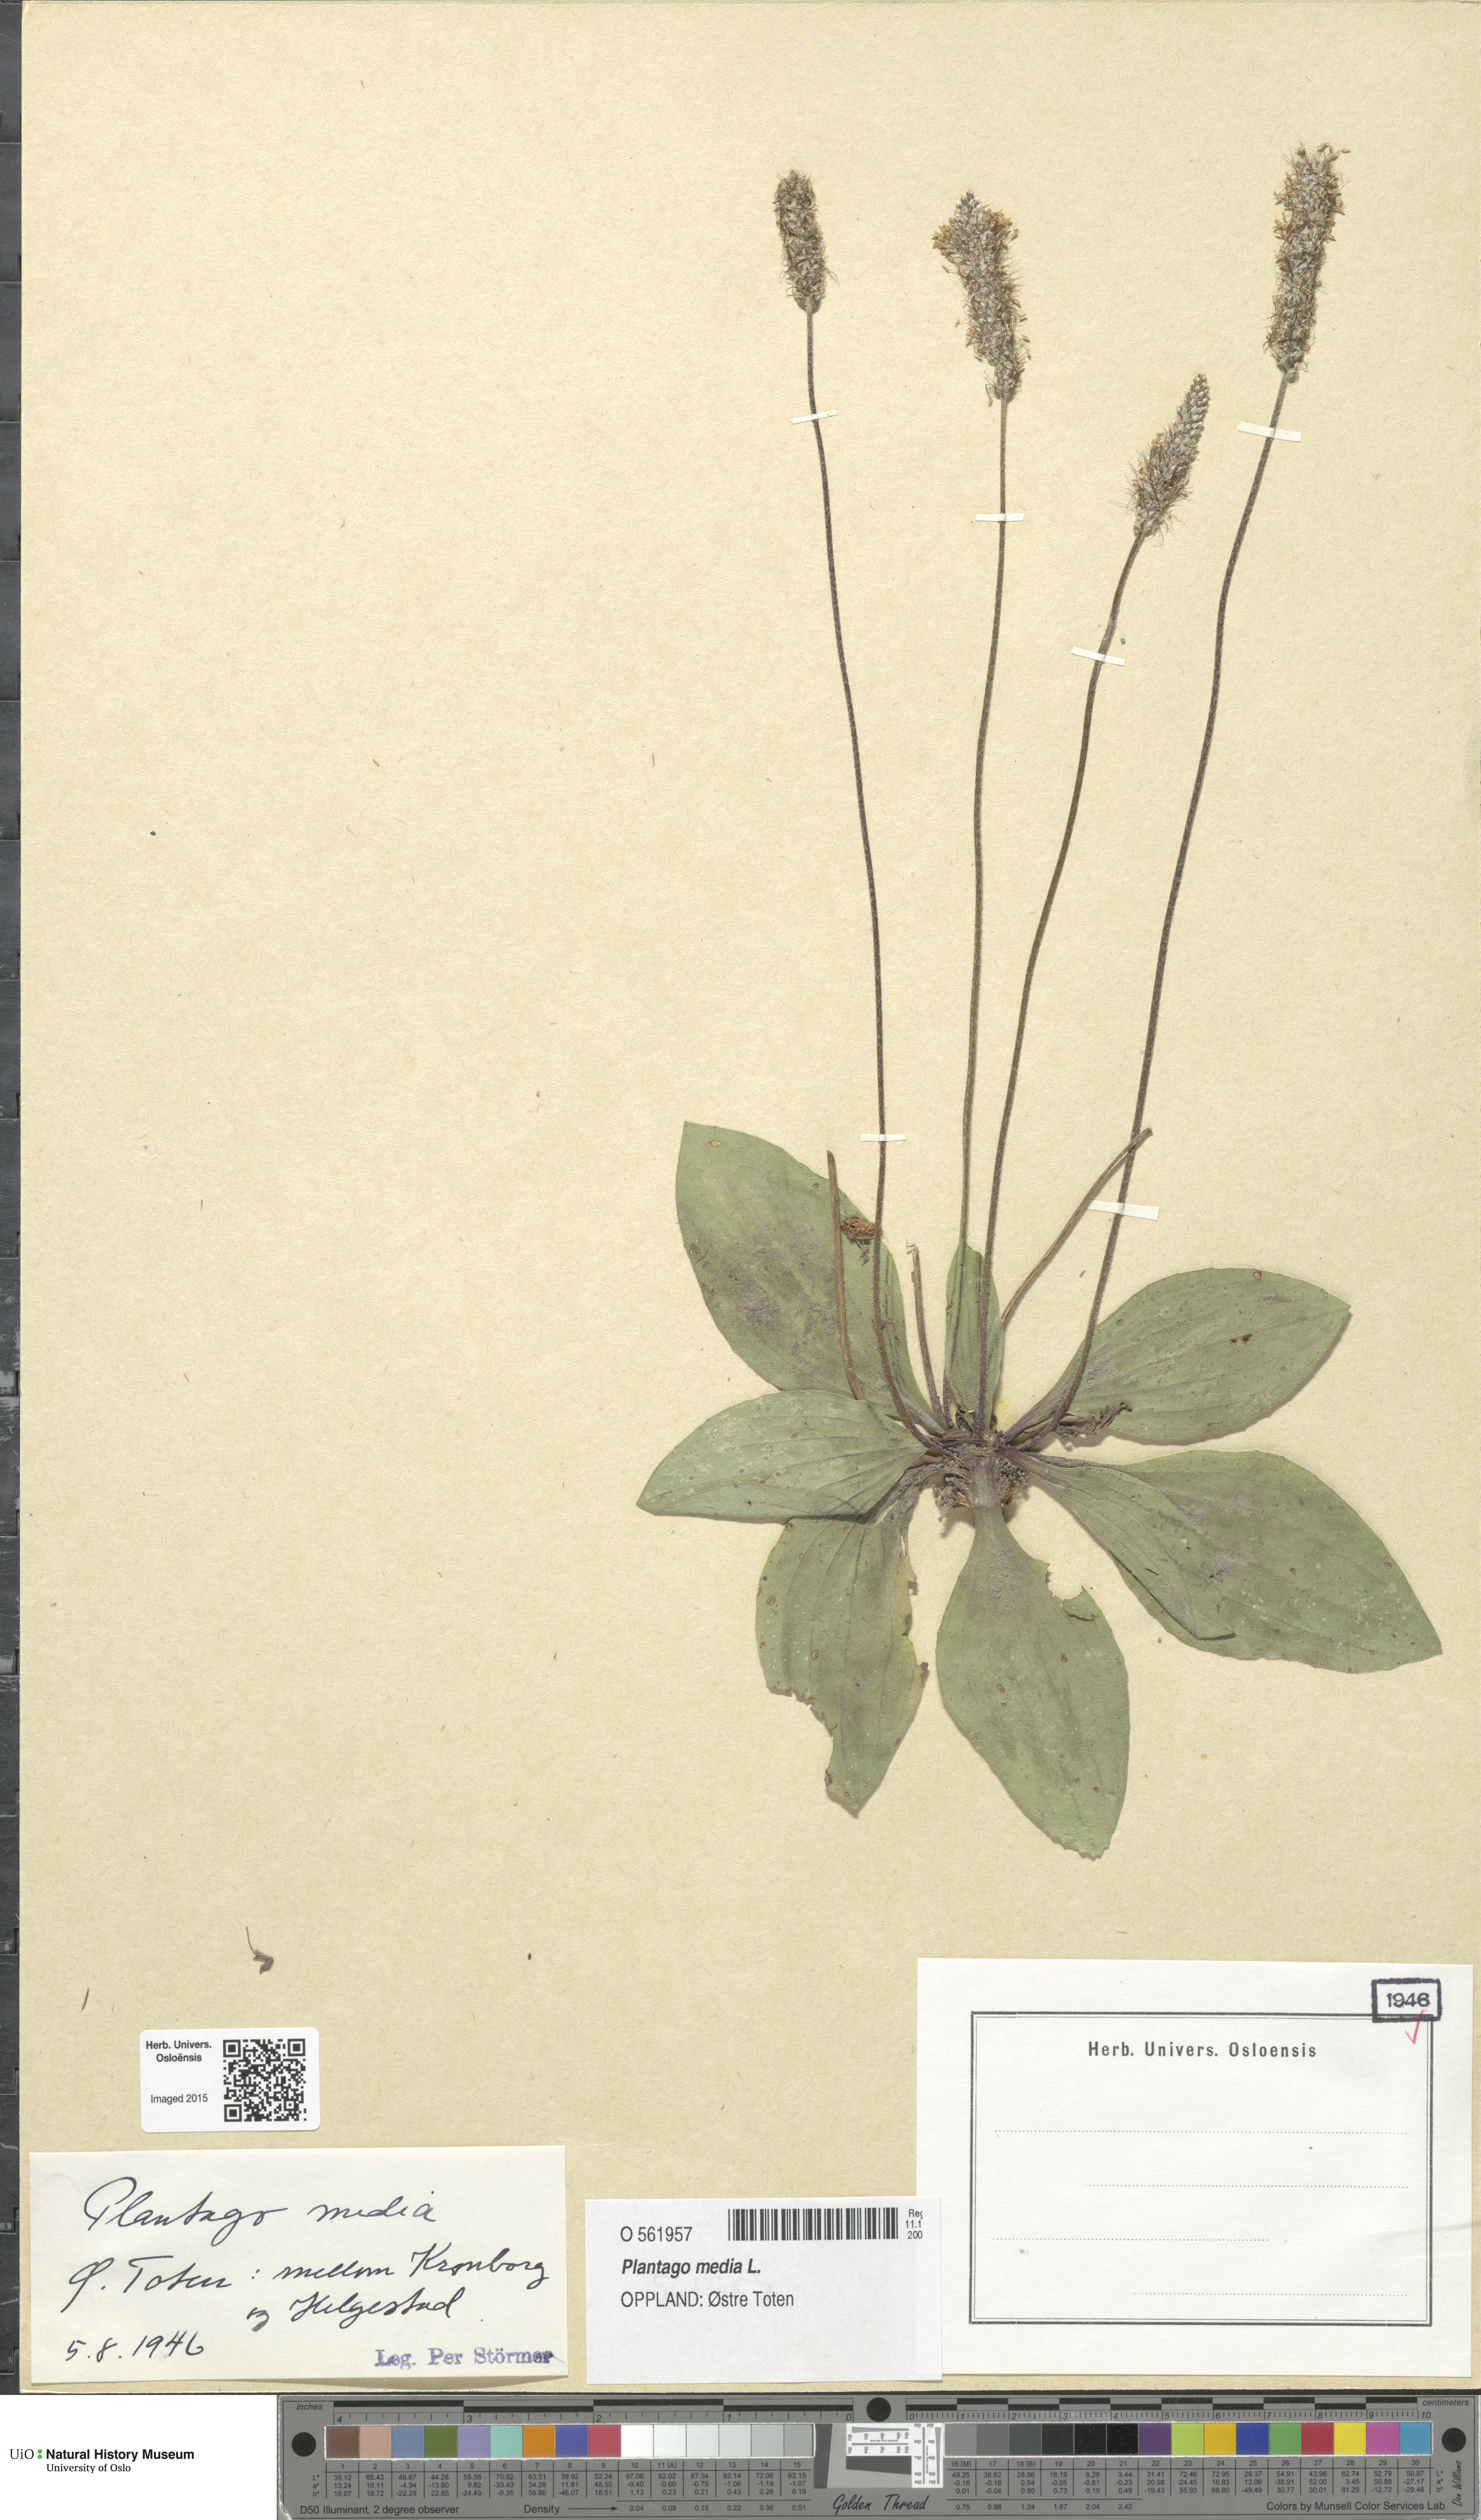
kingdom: Plantae
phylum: Tracheophyta
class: Magnoliopsida
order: Lamiales
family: Plantaginaceae
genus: Plantago
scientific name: Plantago media
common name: Hoary plantain
